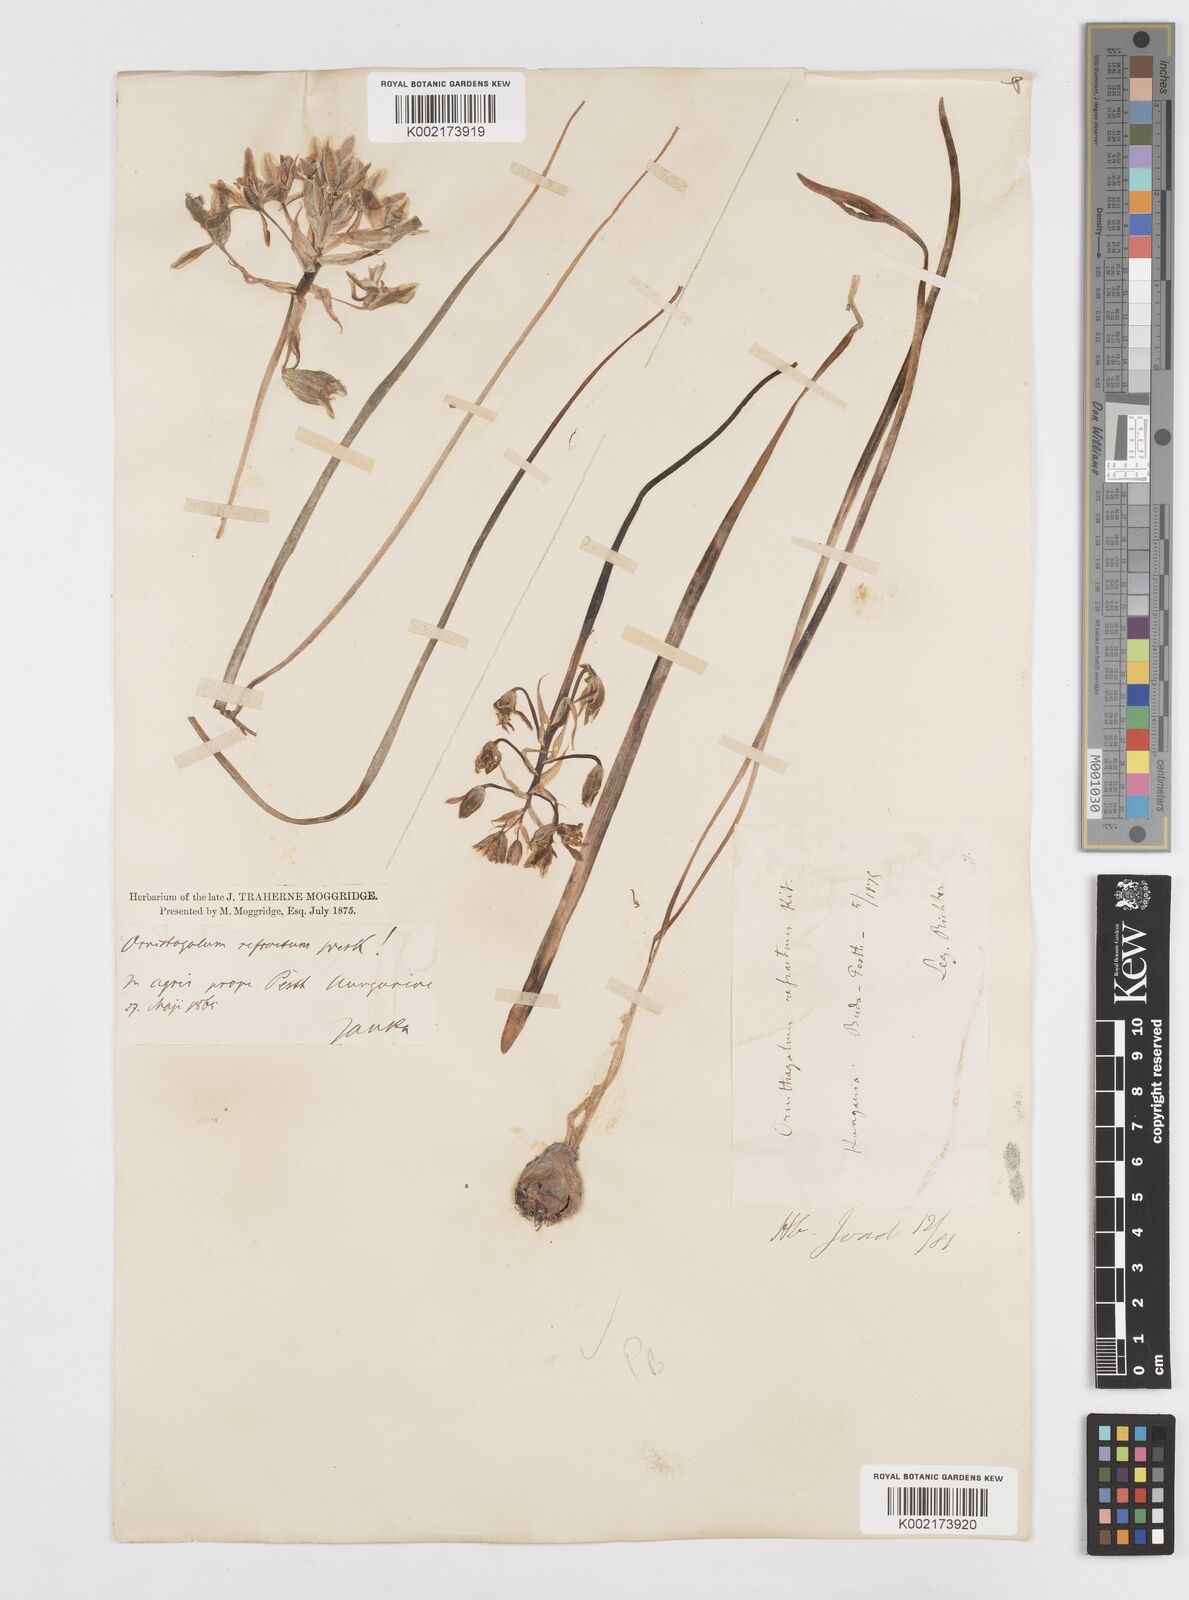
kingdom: Plantae
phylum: Tracheophyta
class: Liliopsida
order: Asparagales
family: Asparagaceae
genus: Ornithogalum
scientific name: Ornithogalum refractum
